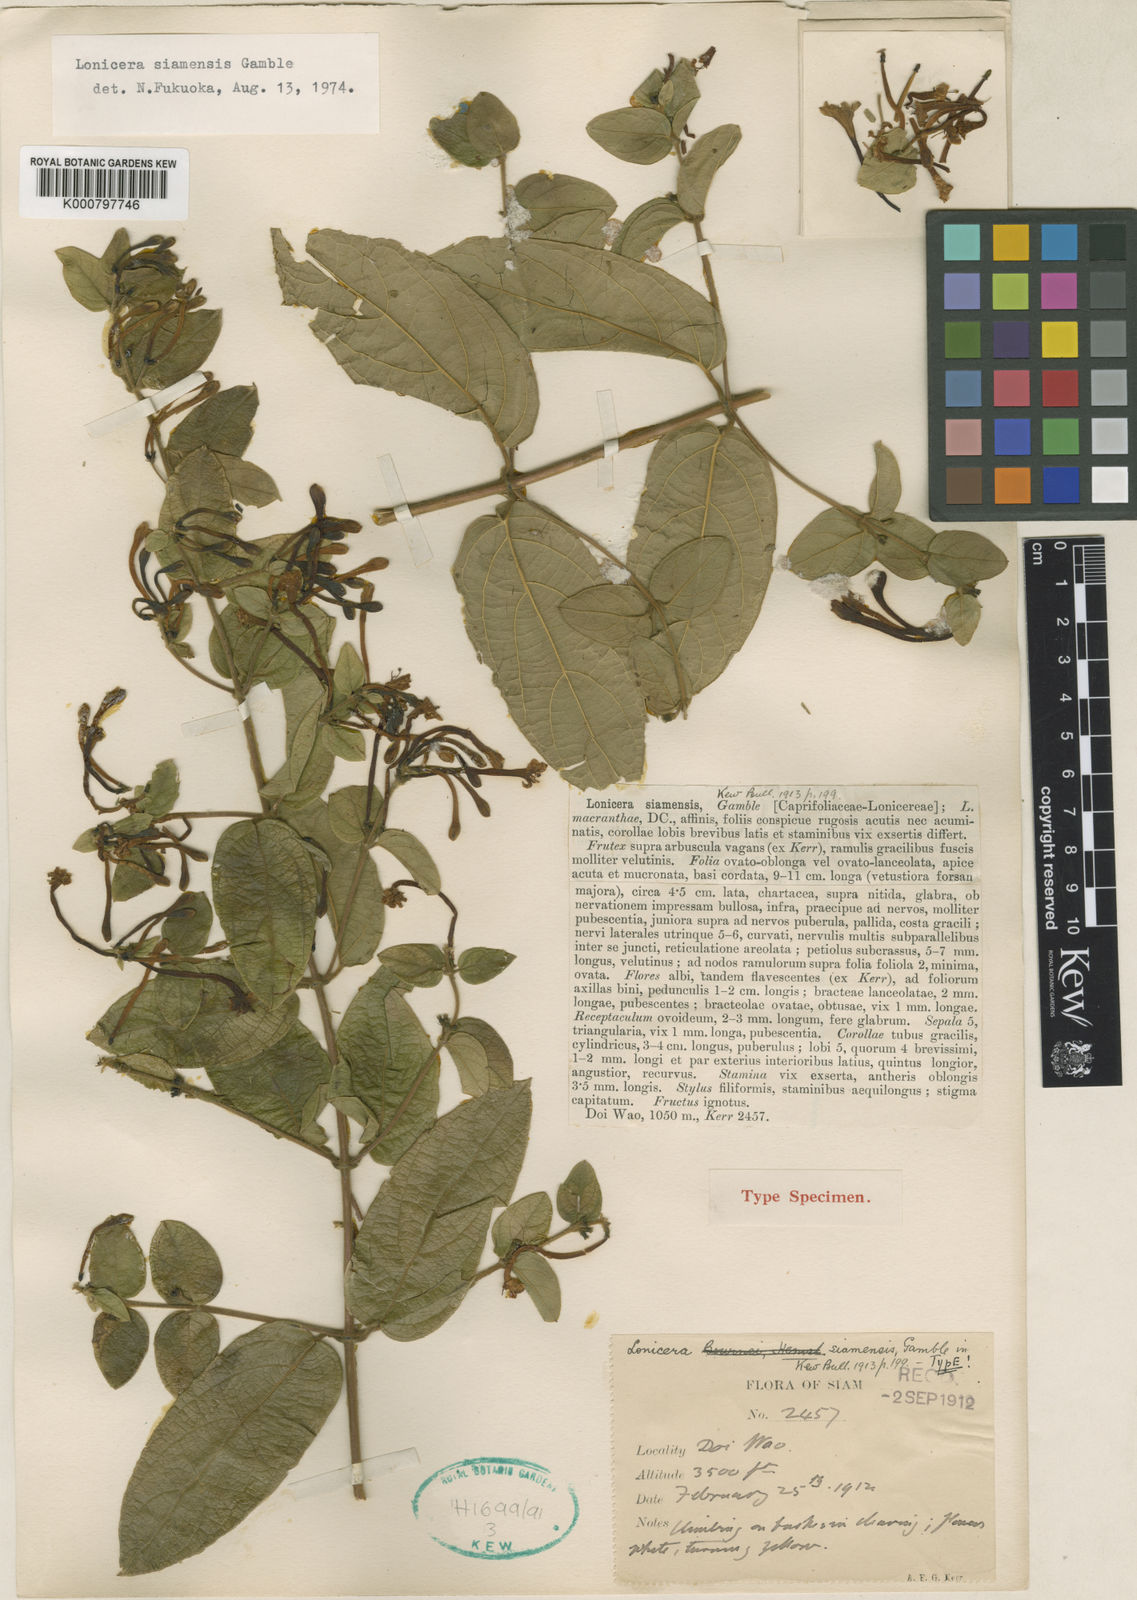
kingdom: Plantae
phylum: Tracheophyta
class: Magnoliopsida
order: Dipsacales
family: Caprifoliaceae
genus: Lonicera
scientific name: Lonicera siamensis
